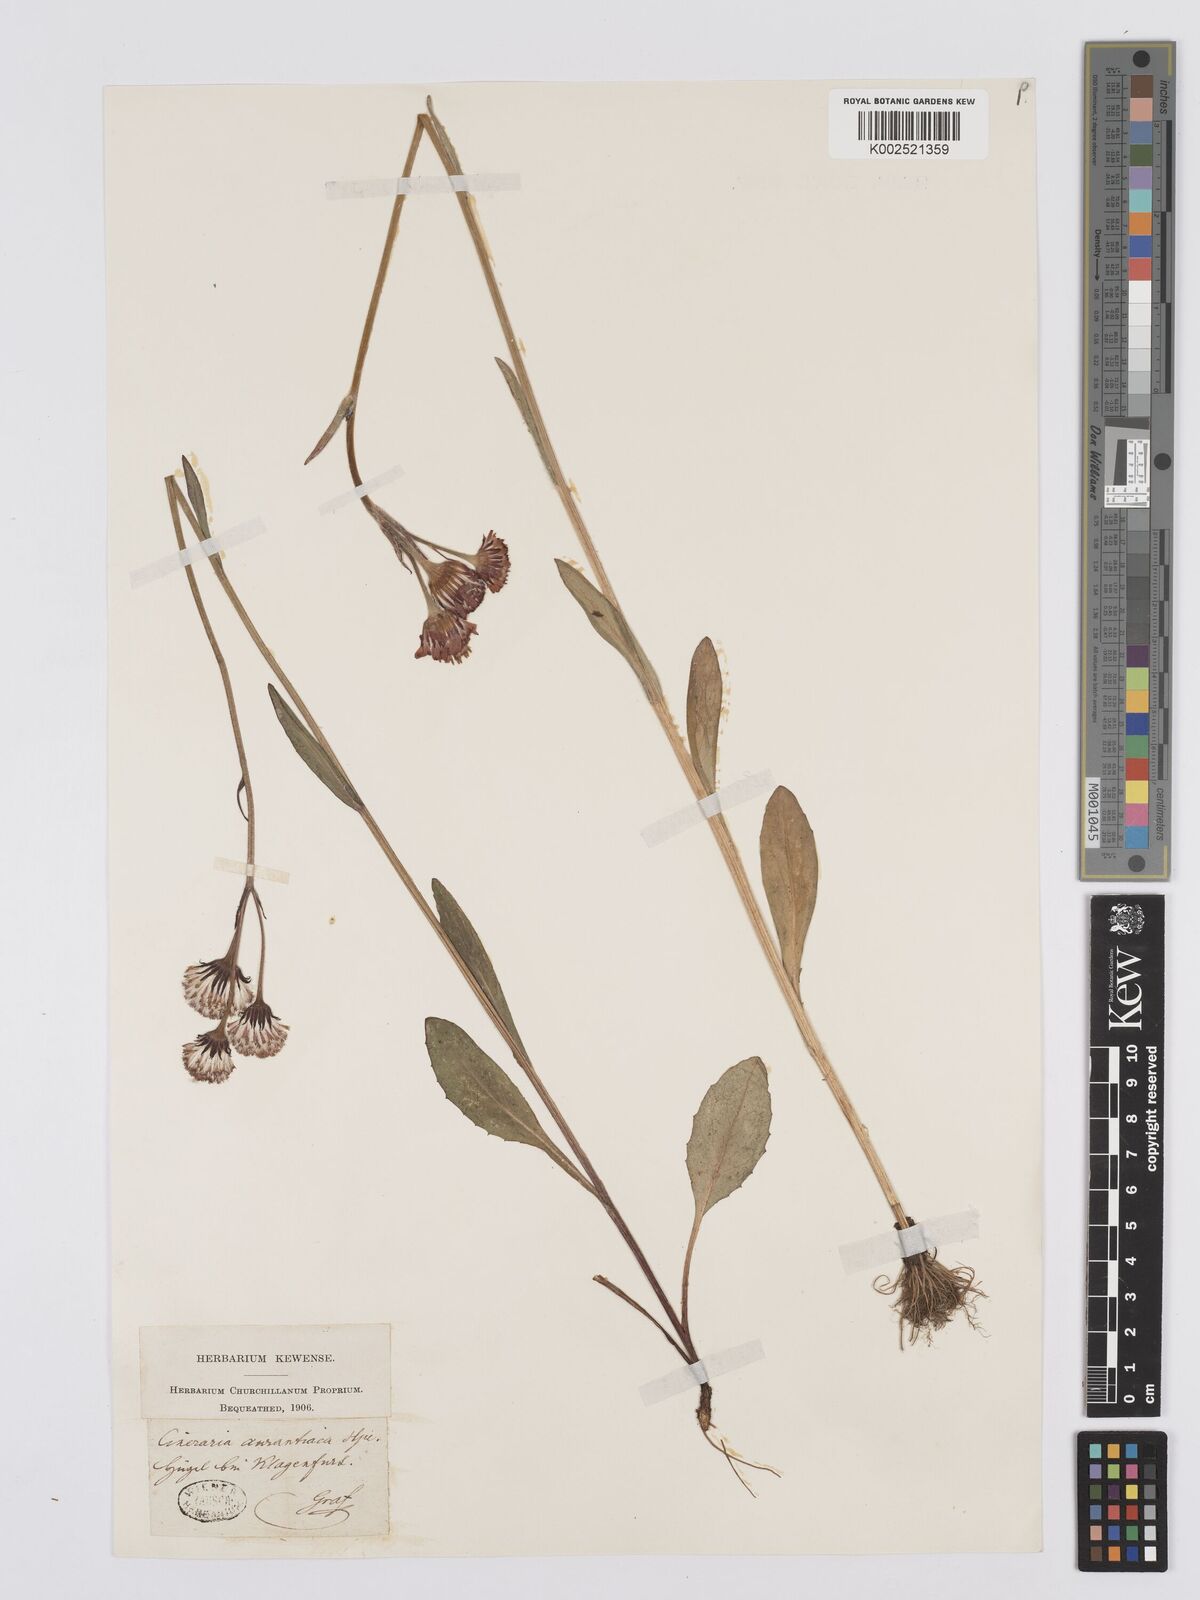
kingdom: Plantae
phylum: Tracheophyta
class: Magnoliopsida
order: Asterales
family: Asteraceae
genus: Tephroseris
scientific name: Tephroseris aurantiaca
